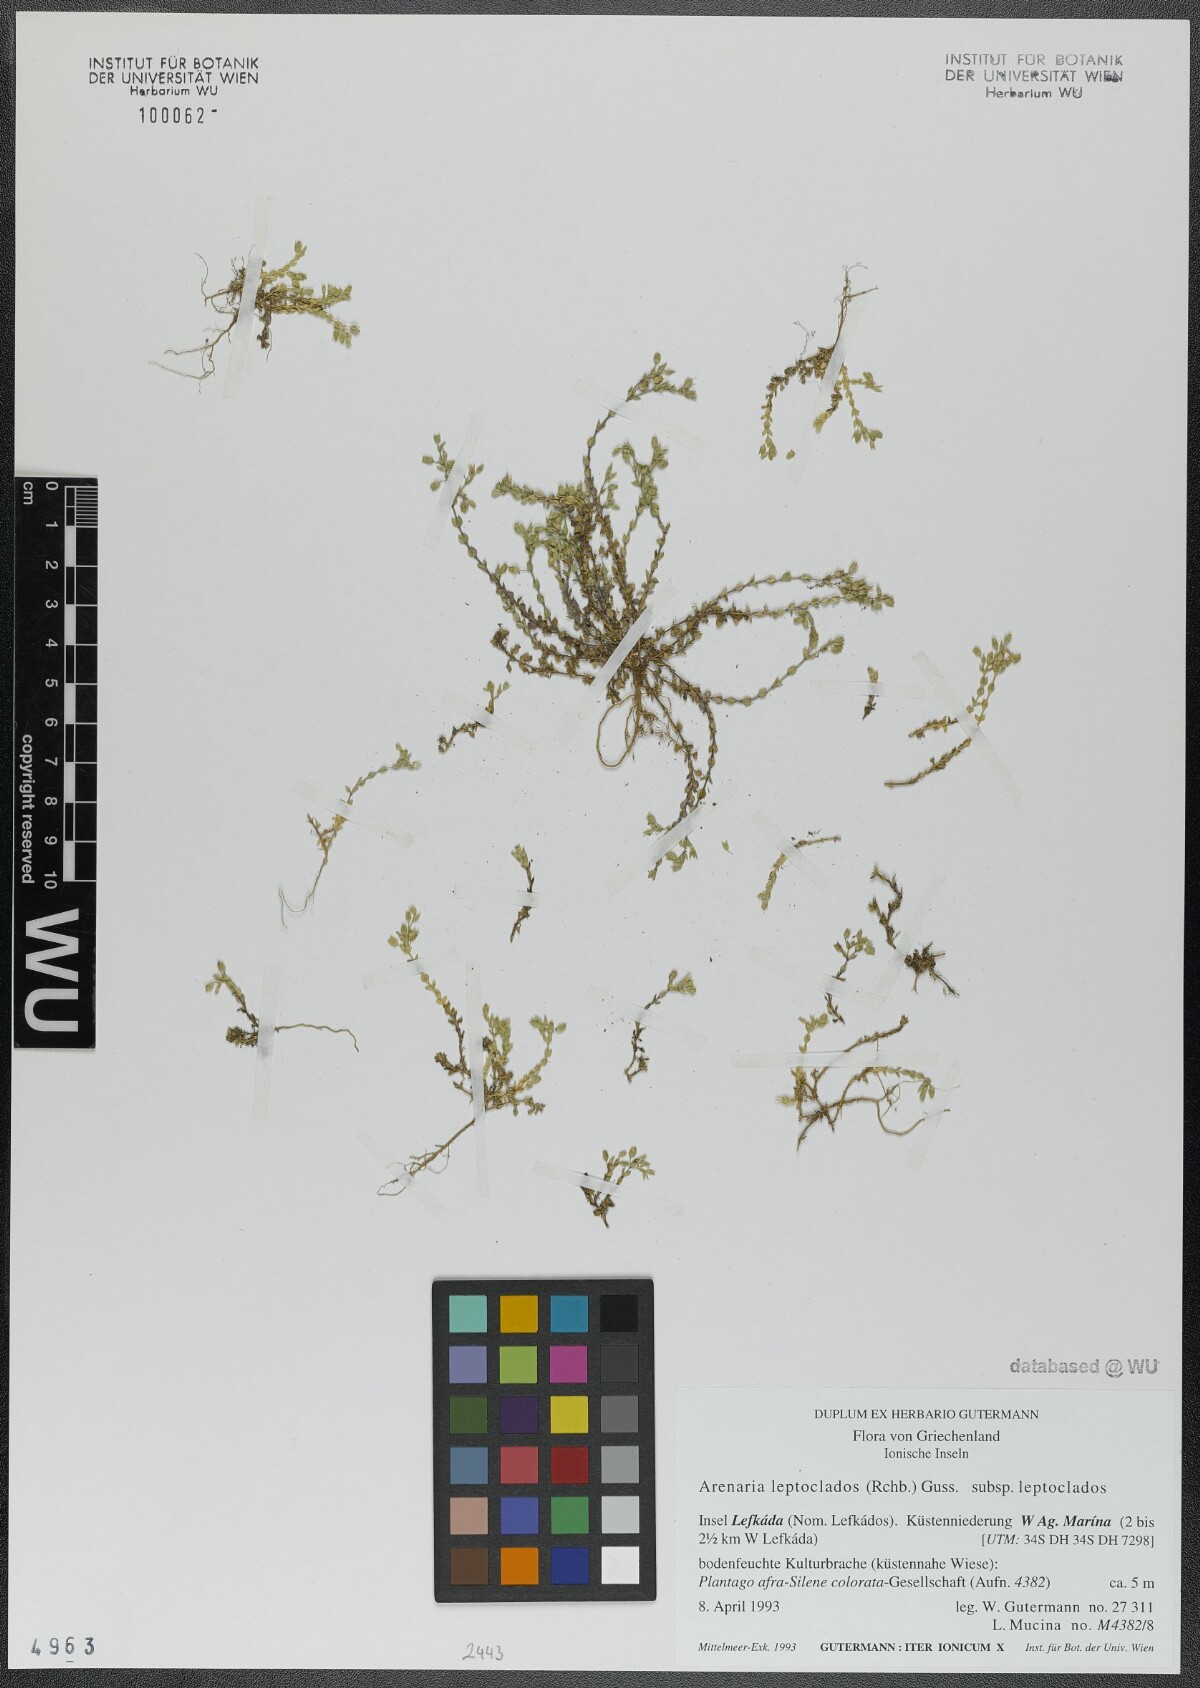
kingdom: Plantae
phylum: Tracheophyta
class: Magnoliopsida
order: Caryophyllales
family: Caryophyllaceae
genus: Arenaria
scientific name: Arenaria leptoclados
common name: Thyme-leaved sandwort
